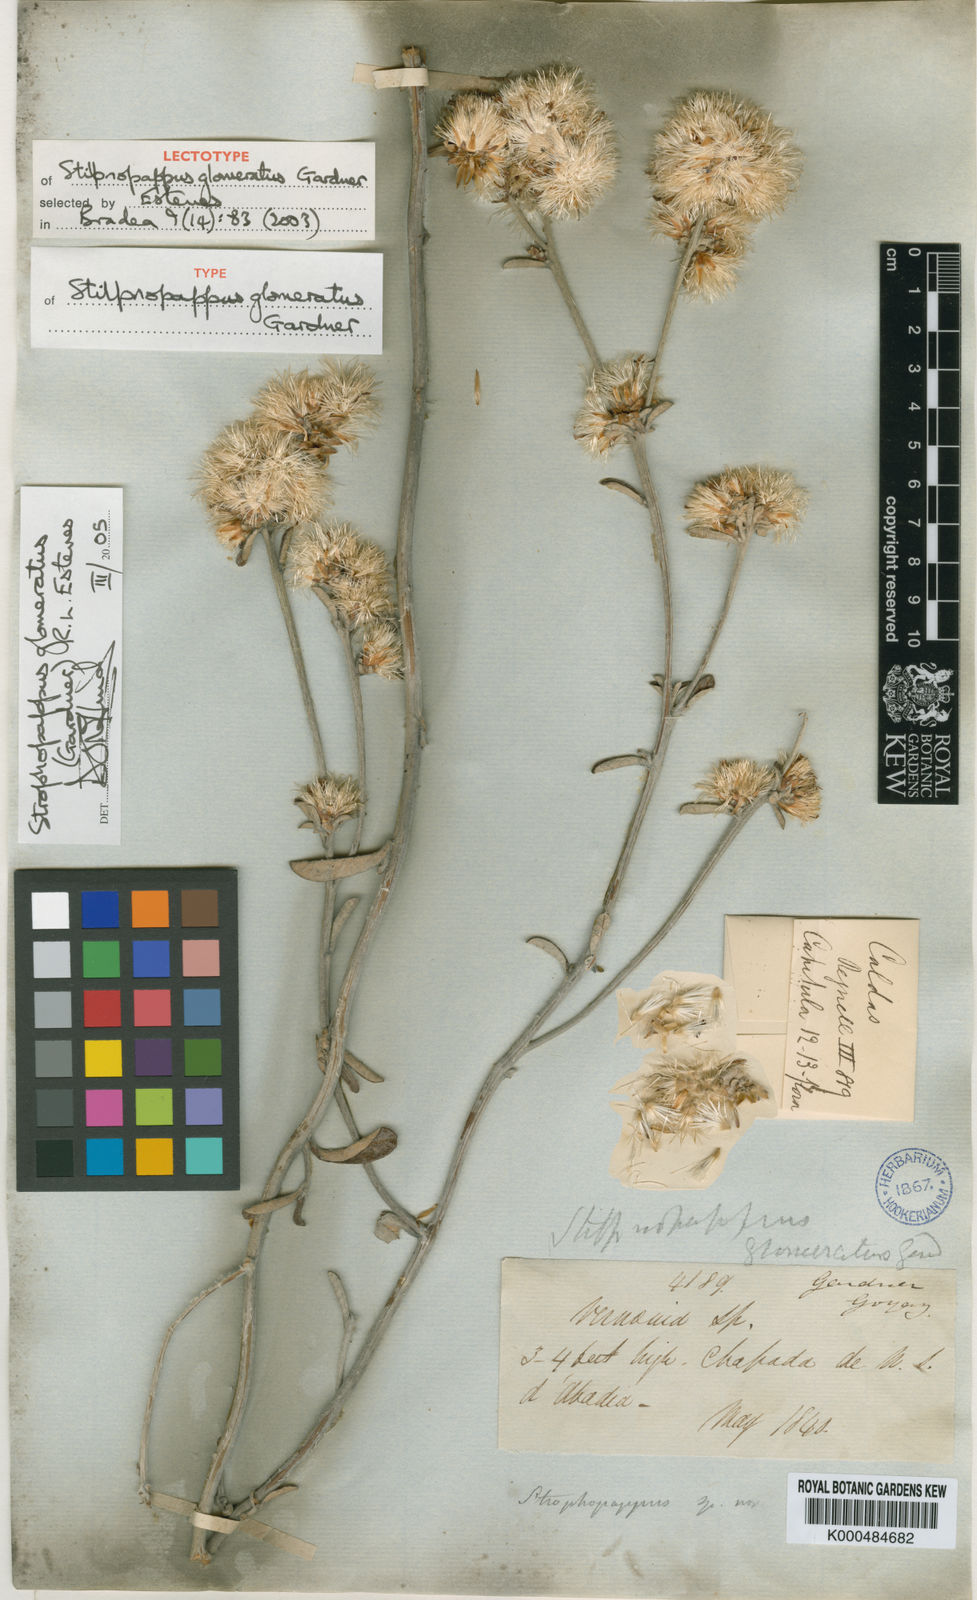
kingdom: Plantae
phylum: Tracheophyta
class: Magnoliopsida
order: Asterales
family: Asteraceae
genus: Stilpnopappus
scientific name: Stilpnopappus glomeratus
